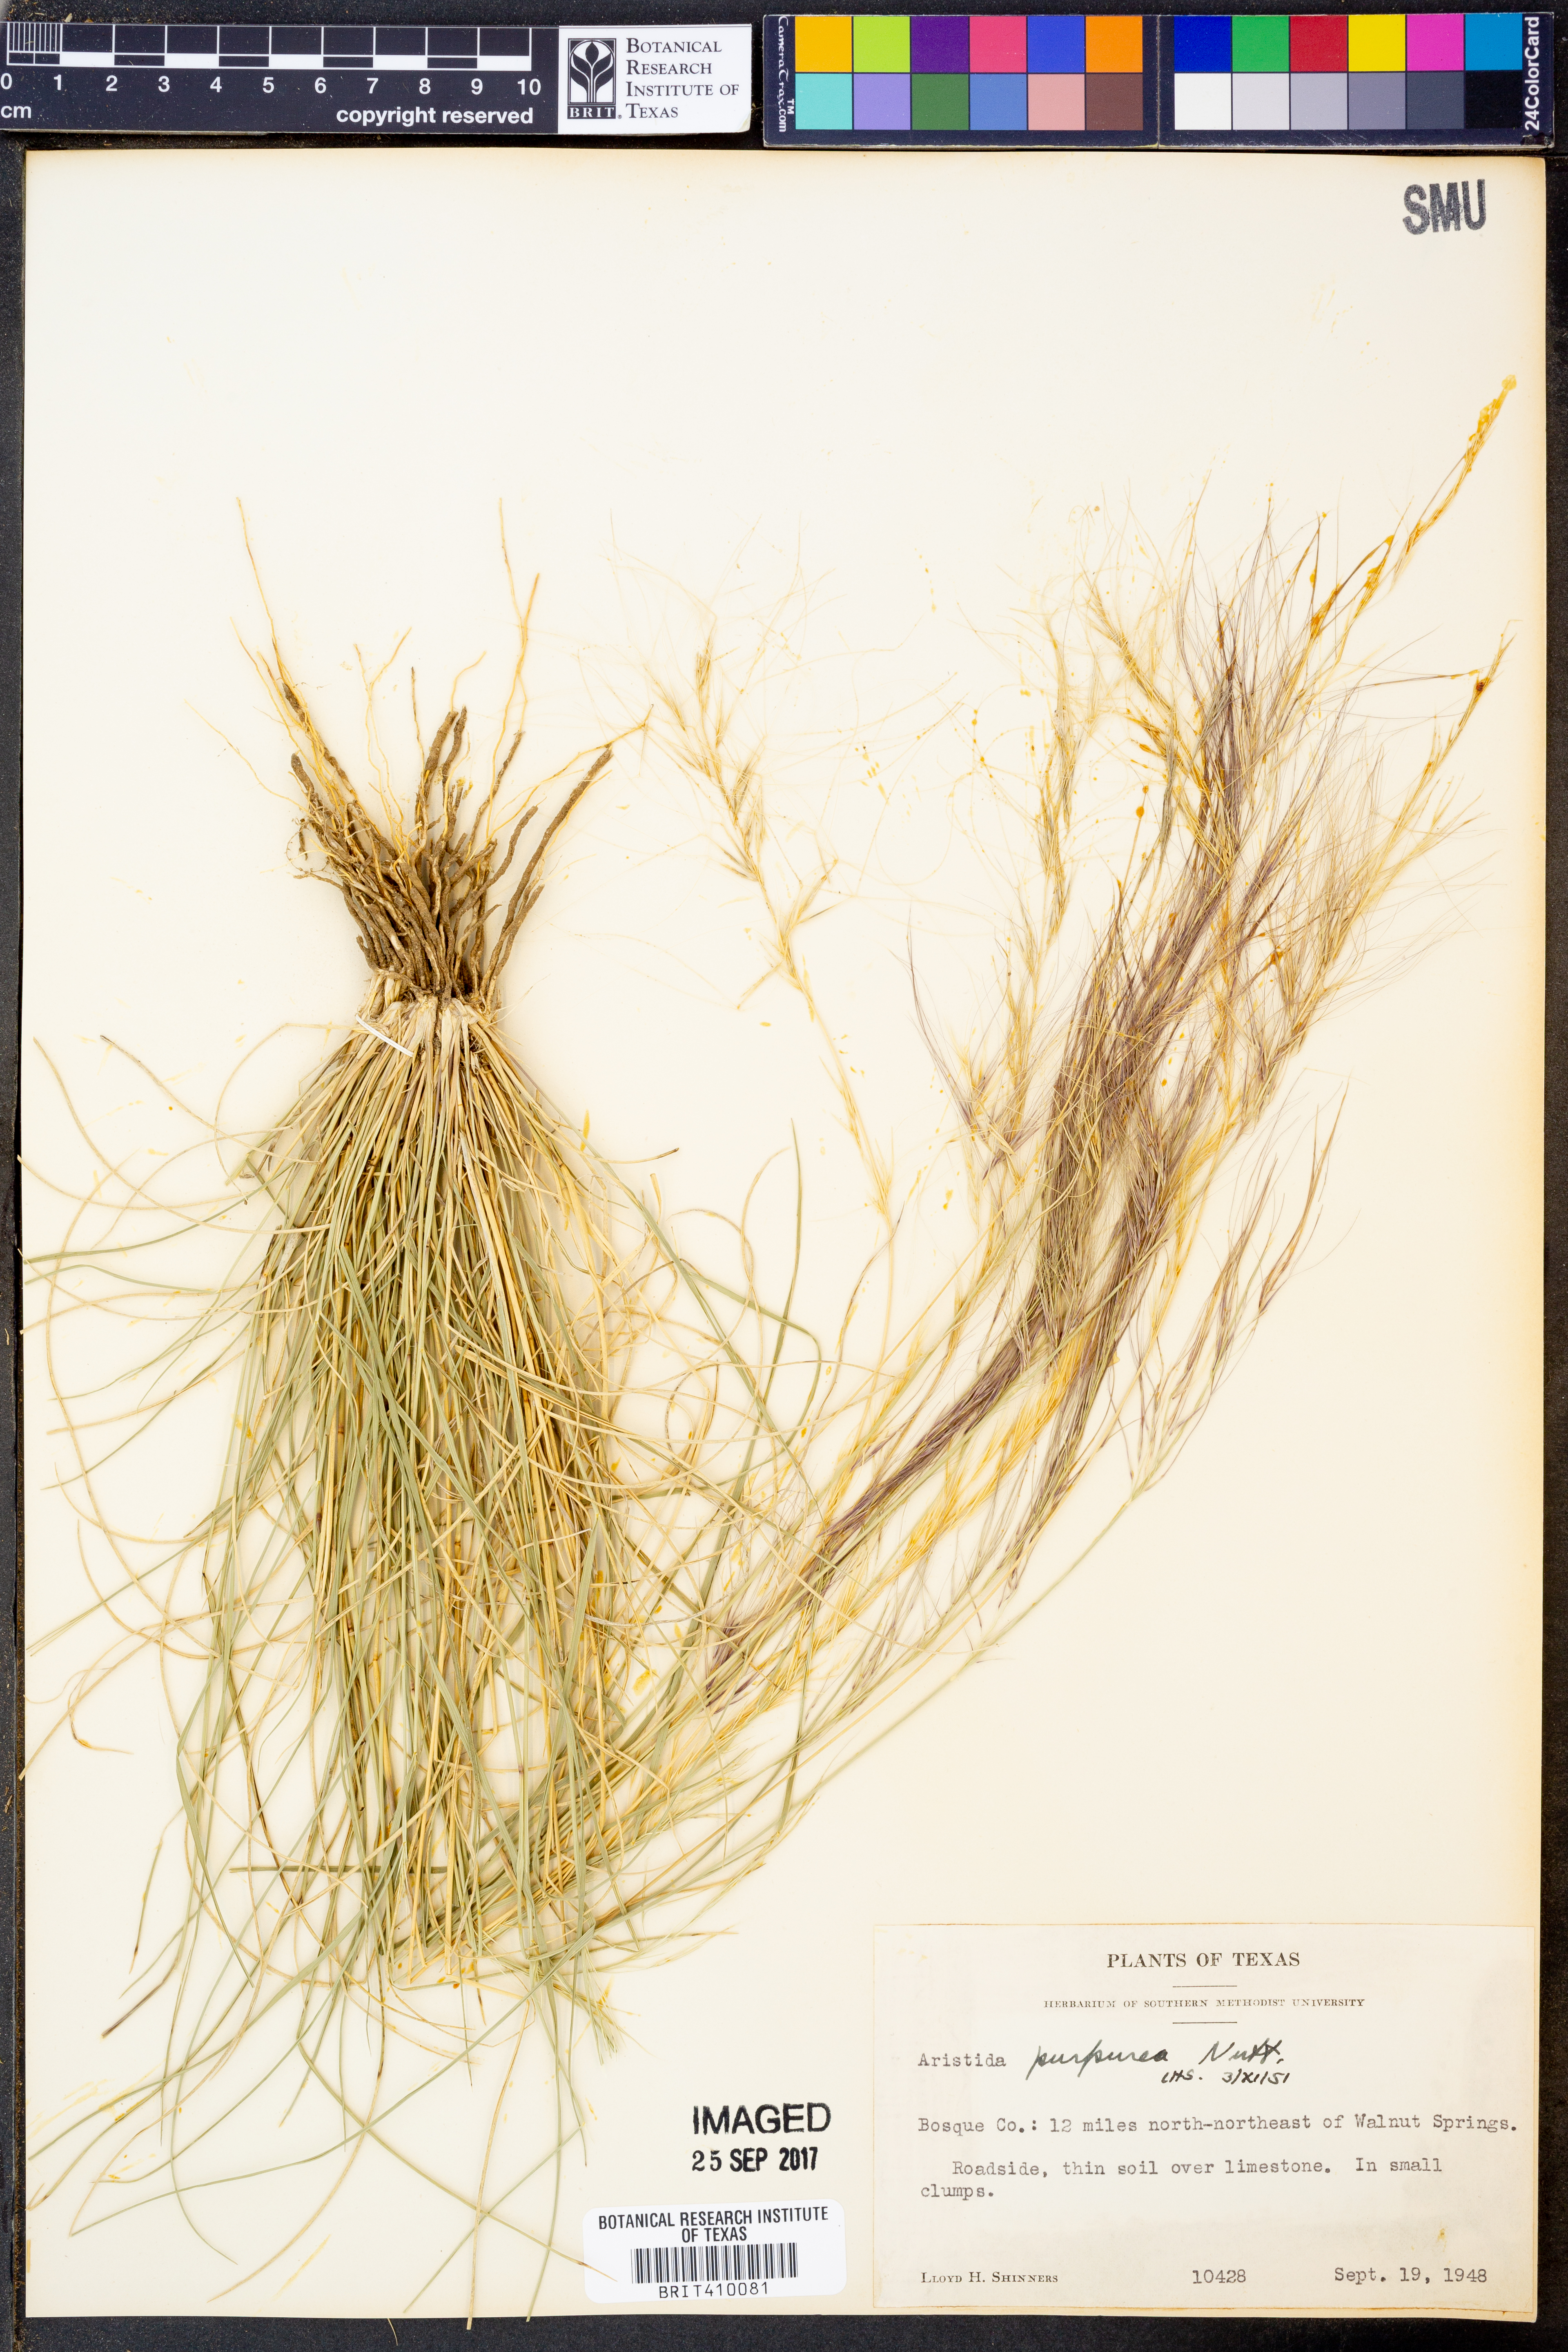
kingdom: Plantae
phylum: Tracheophyta
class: Liliopsida
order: Poales
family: Poaceae
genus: Aristida
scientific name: Aristida purpurea
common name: Purple threeawn
